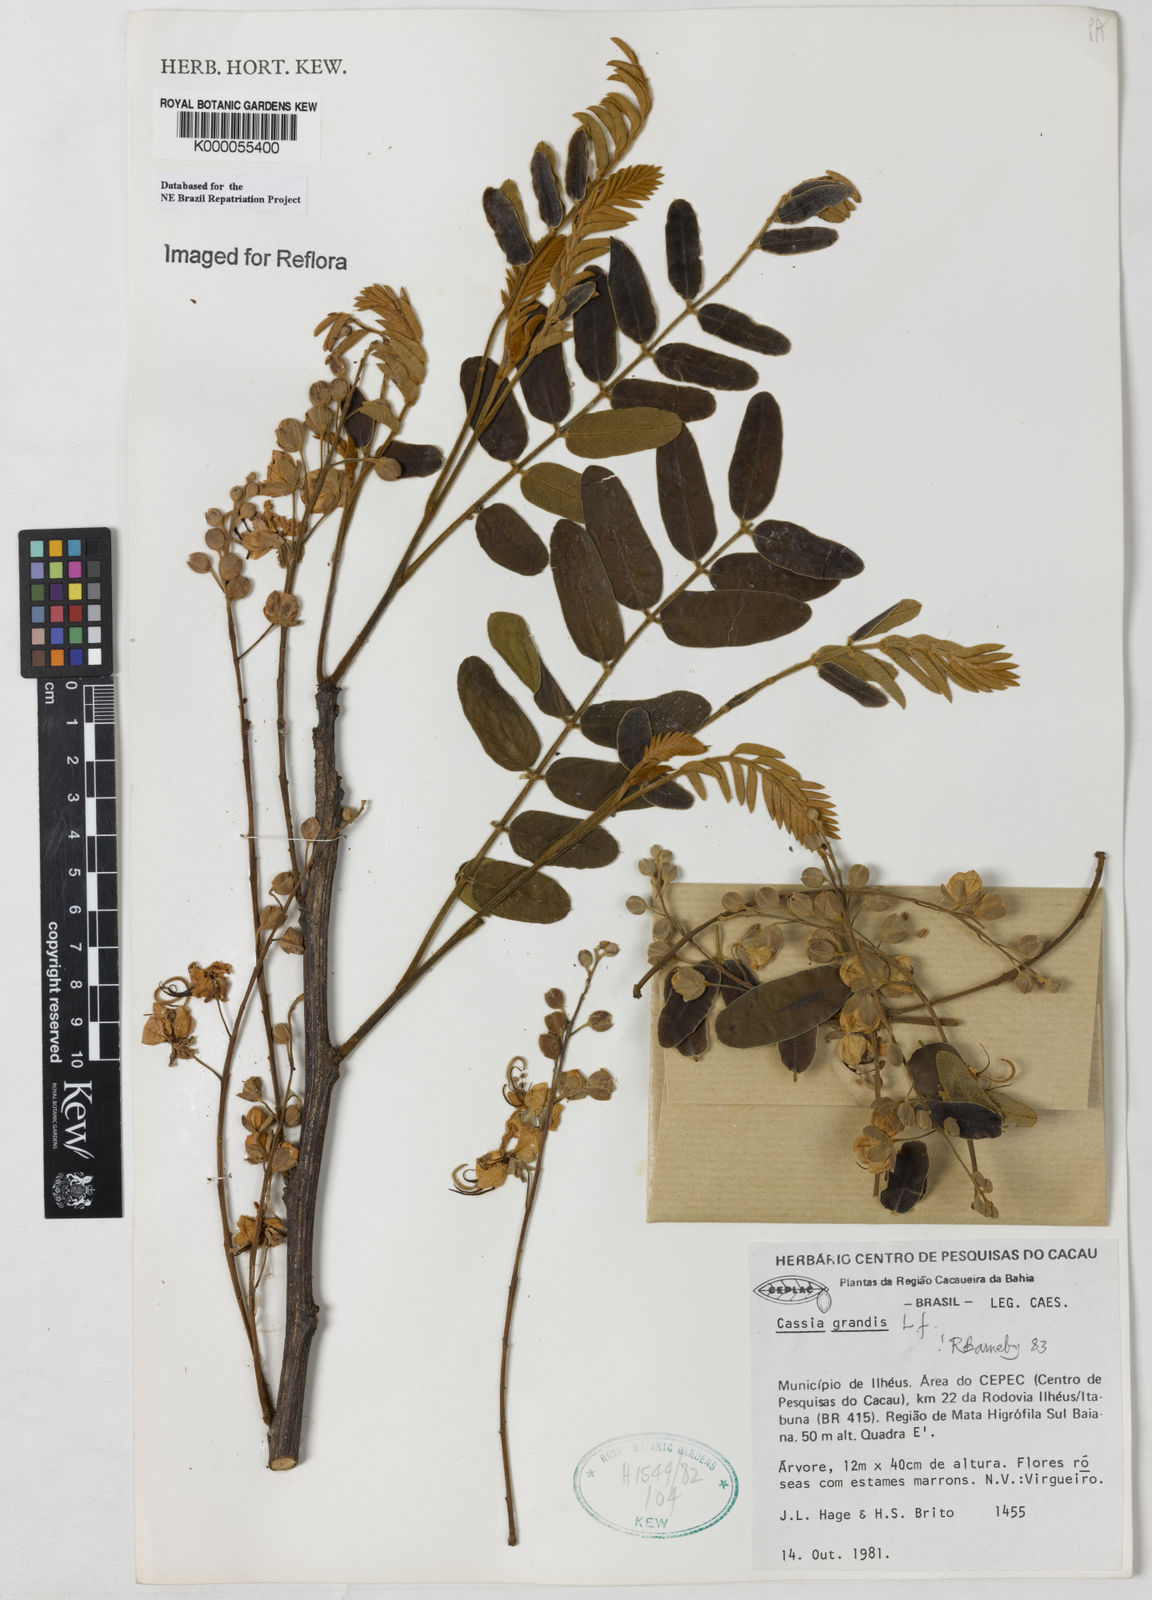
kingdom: Plantae
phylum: Tracheophyta
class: Magnoliopsida
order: Fabales
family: Fabaceae
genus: Cassia
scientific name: Cassia grandis
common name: Appleblossom cassia
